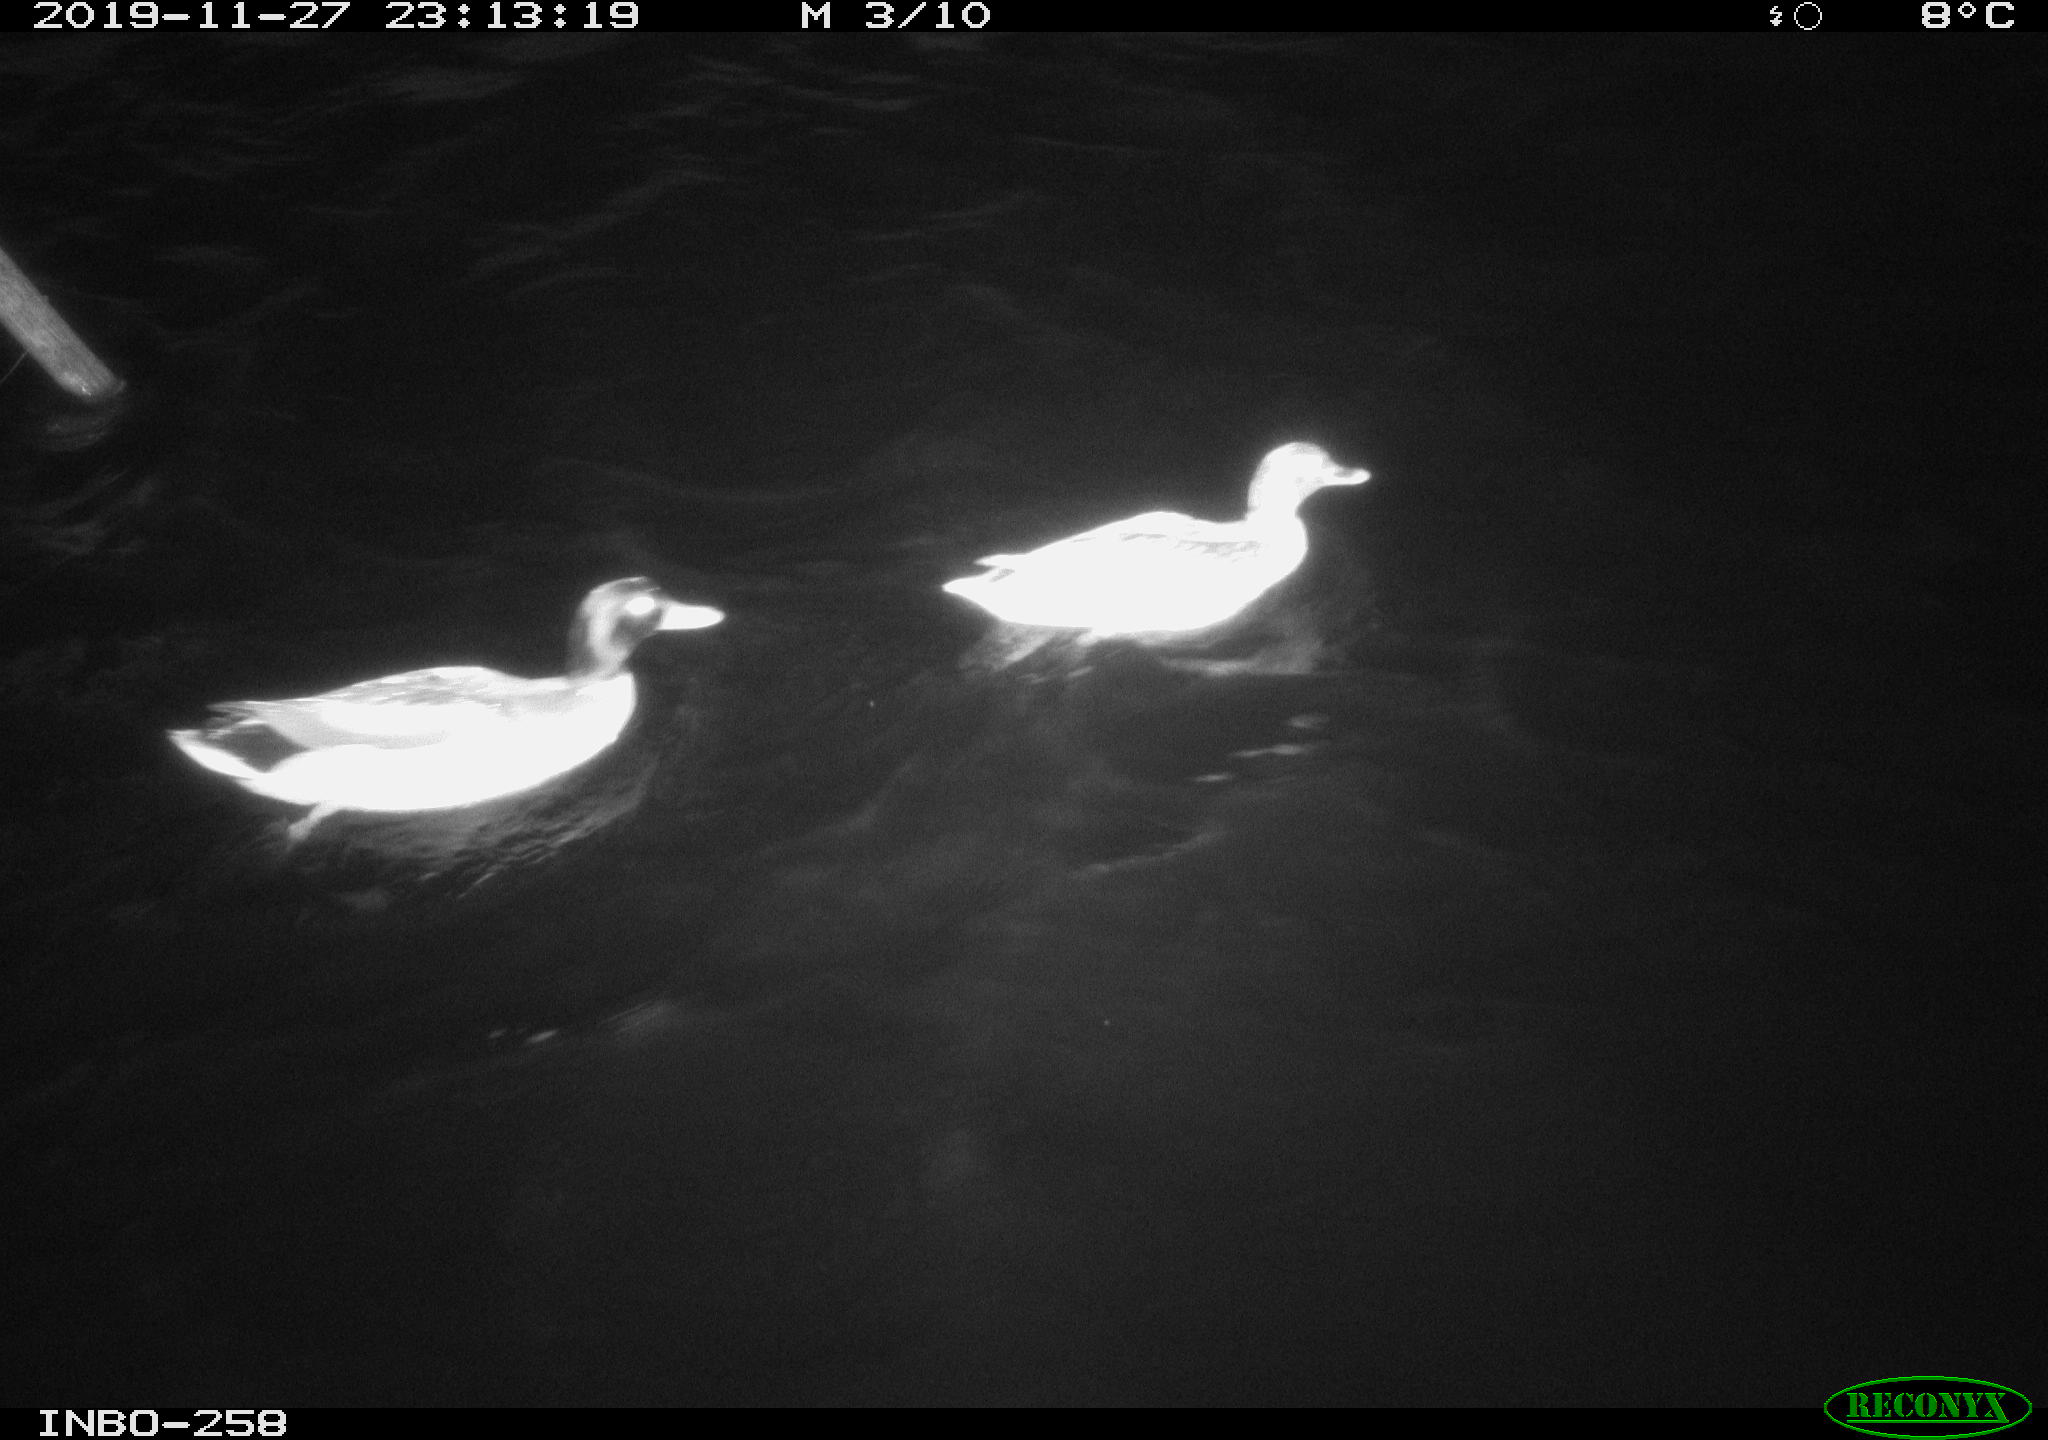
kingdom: Animalia
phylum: Chordata
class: Aves
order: Anseriformes
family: Anatidae
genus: Anas
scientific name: Anas platyrhynchos
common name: Mallard
